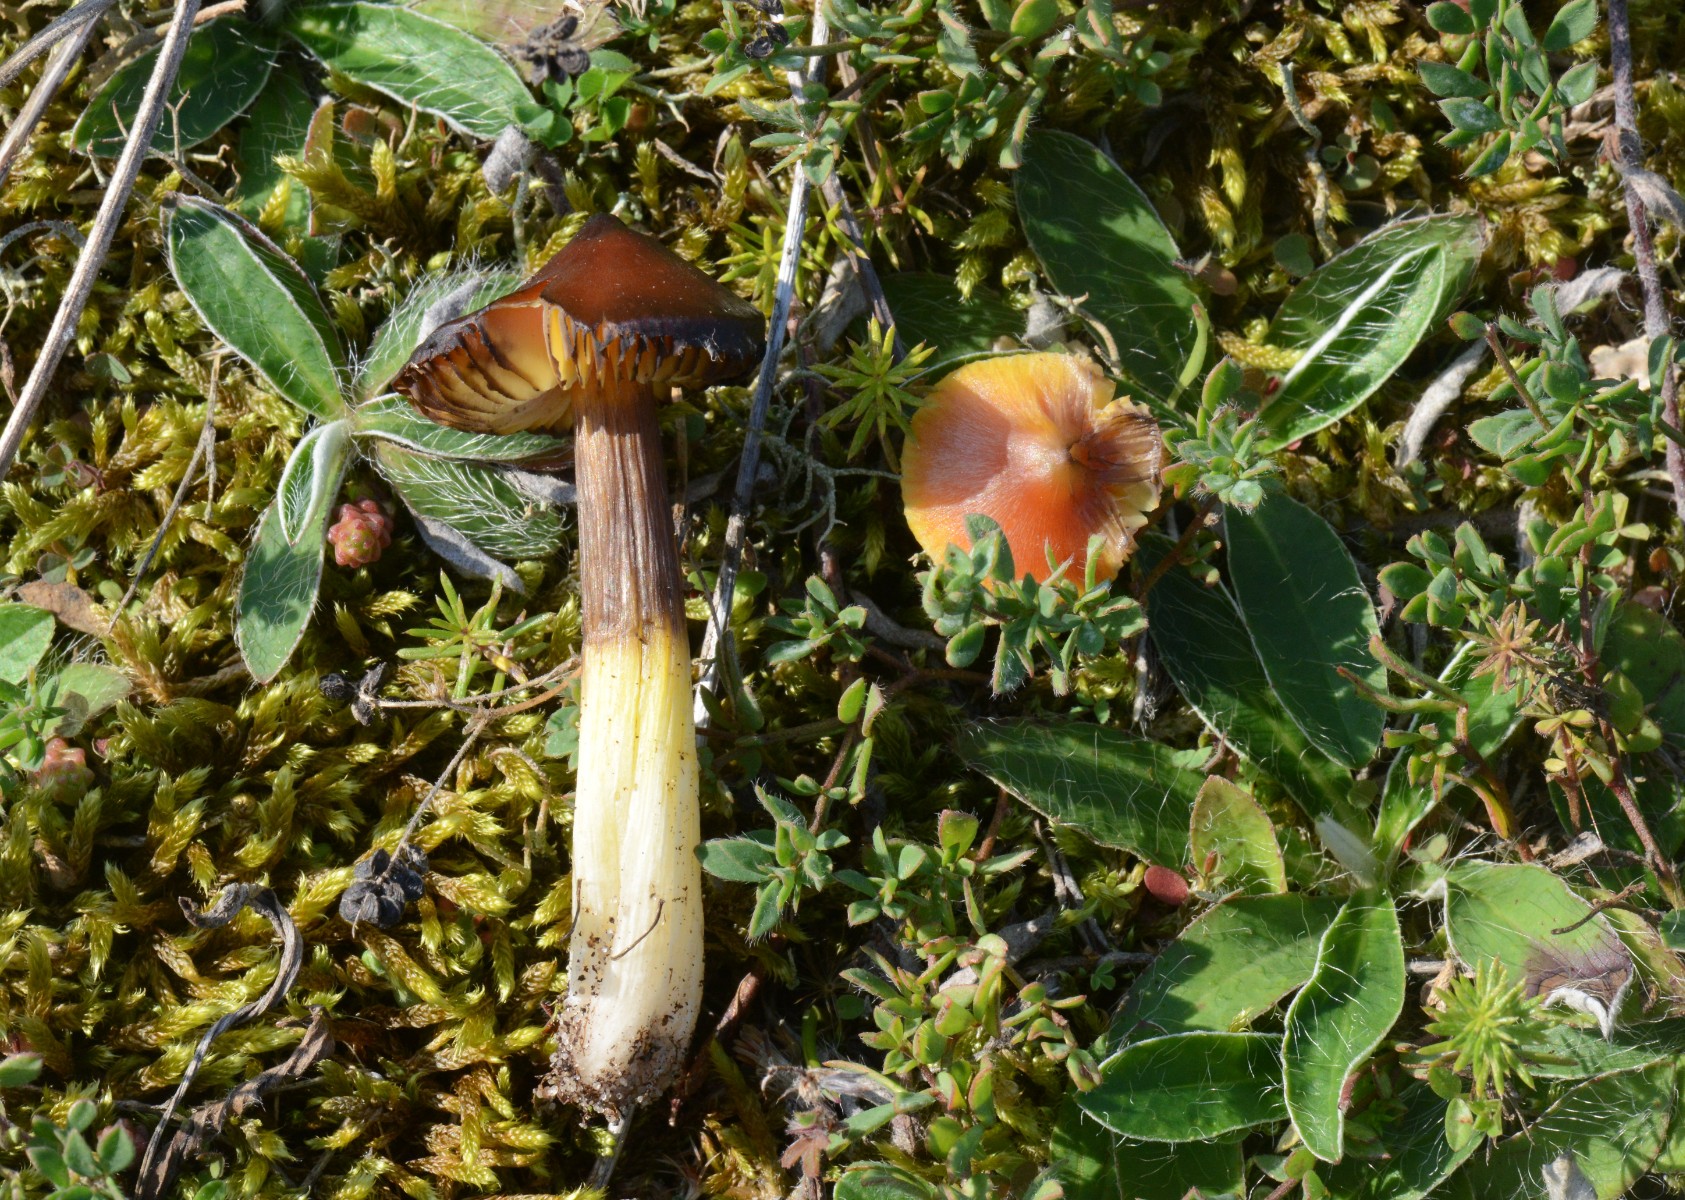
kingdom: Fungi
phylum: Basidiomycota
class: Agaricomycetes
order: Agaricales
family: Hygrophoraceae
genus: Hygrocybe
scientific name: Hygrocybe conica
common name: kegle-vokshat
